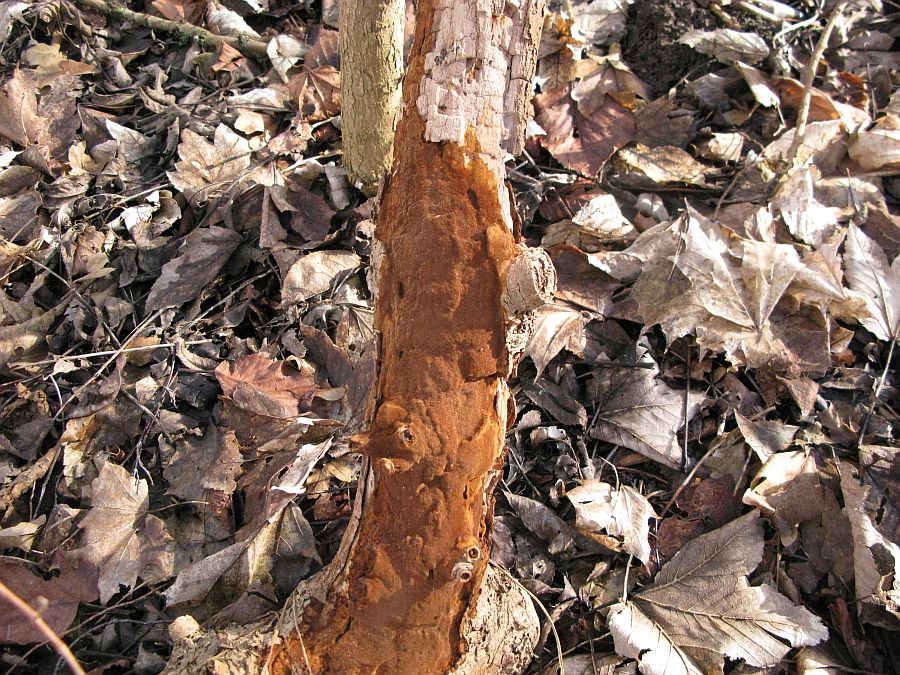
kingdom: Fungi
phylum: Basidiomycota
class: Agaricomycetes
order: Hymenochaetales
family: Hymenochaetaceae
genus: Fuscoporia
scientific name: Fuscoporia ferrea
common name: skorpe-ildporesvamp
